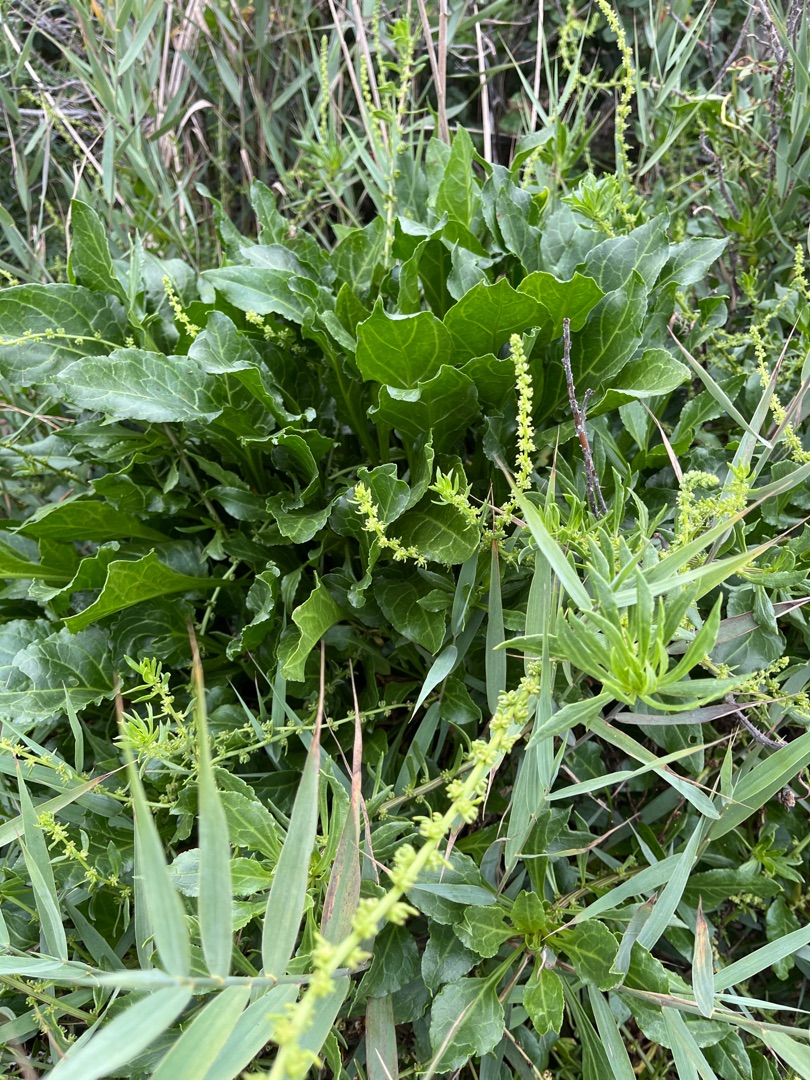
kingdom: Plantae
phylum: Tracheophyta
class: Magnoliopsida
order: Caryophyllales
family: Amaranthaceae
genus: Beta
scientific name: Beta maritima
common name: Strand-bede
